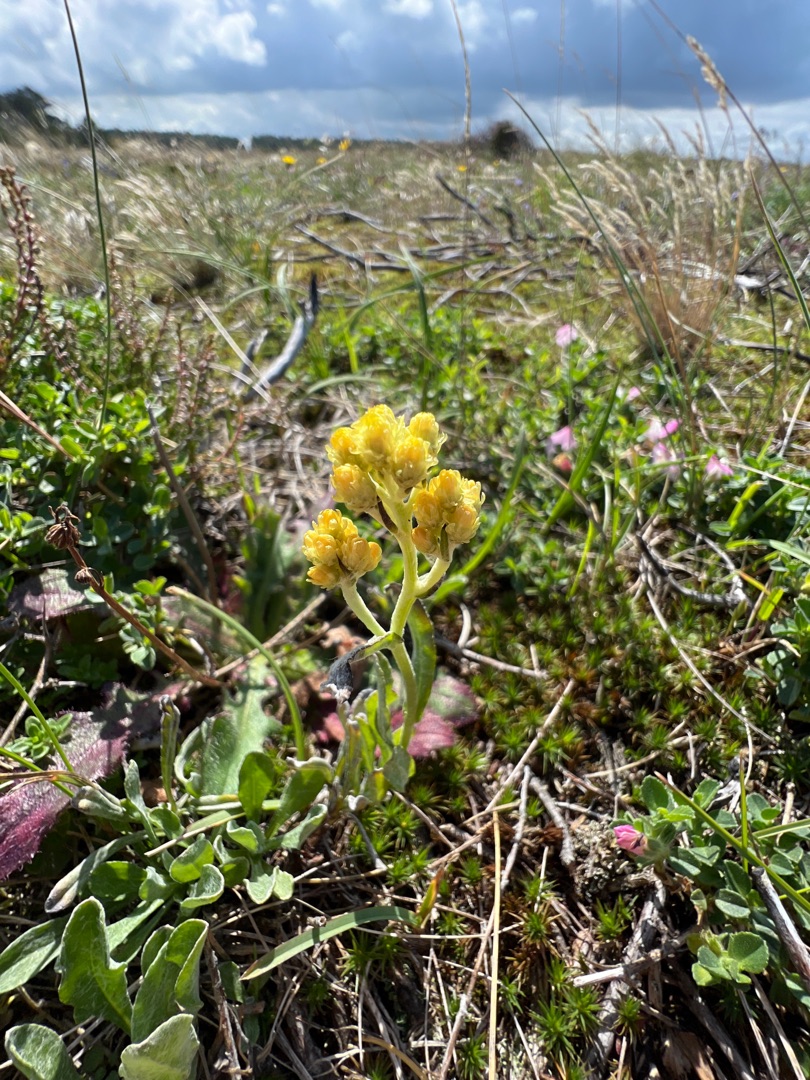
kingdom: Plantae
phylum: Tracheophyta
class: Magnoliopsida
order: Asterales
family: Asteraceae
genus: Helichrysum
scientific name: Helichrysum arenarium
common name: Gul evighedsblomst
